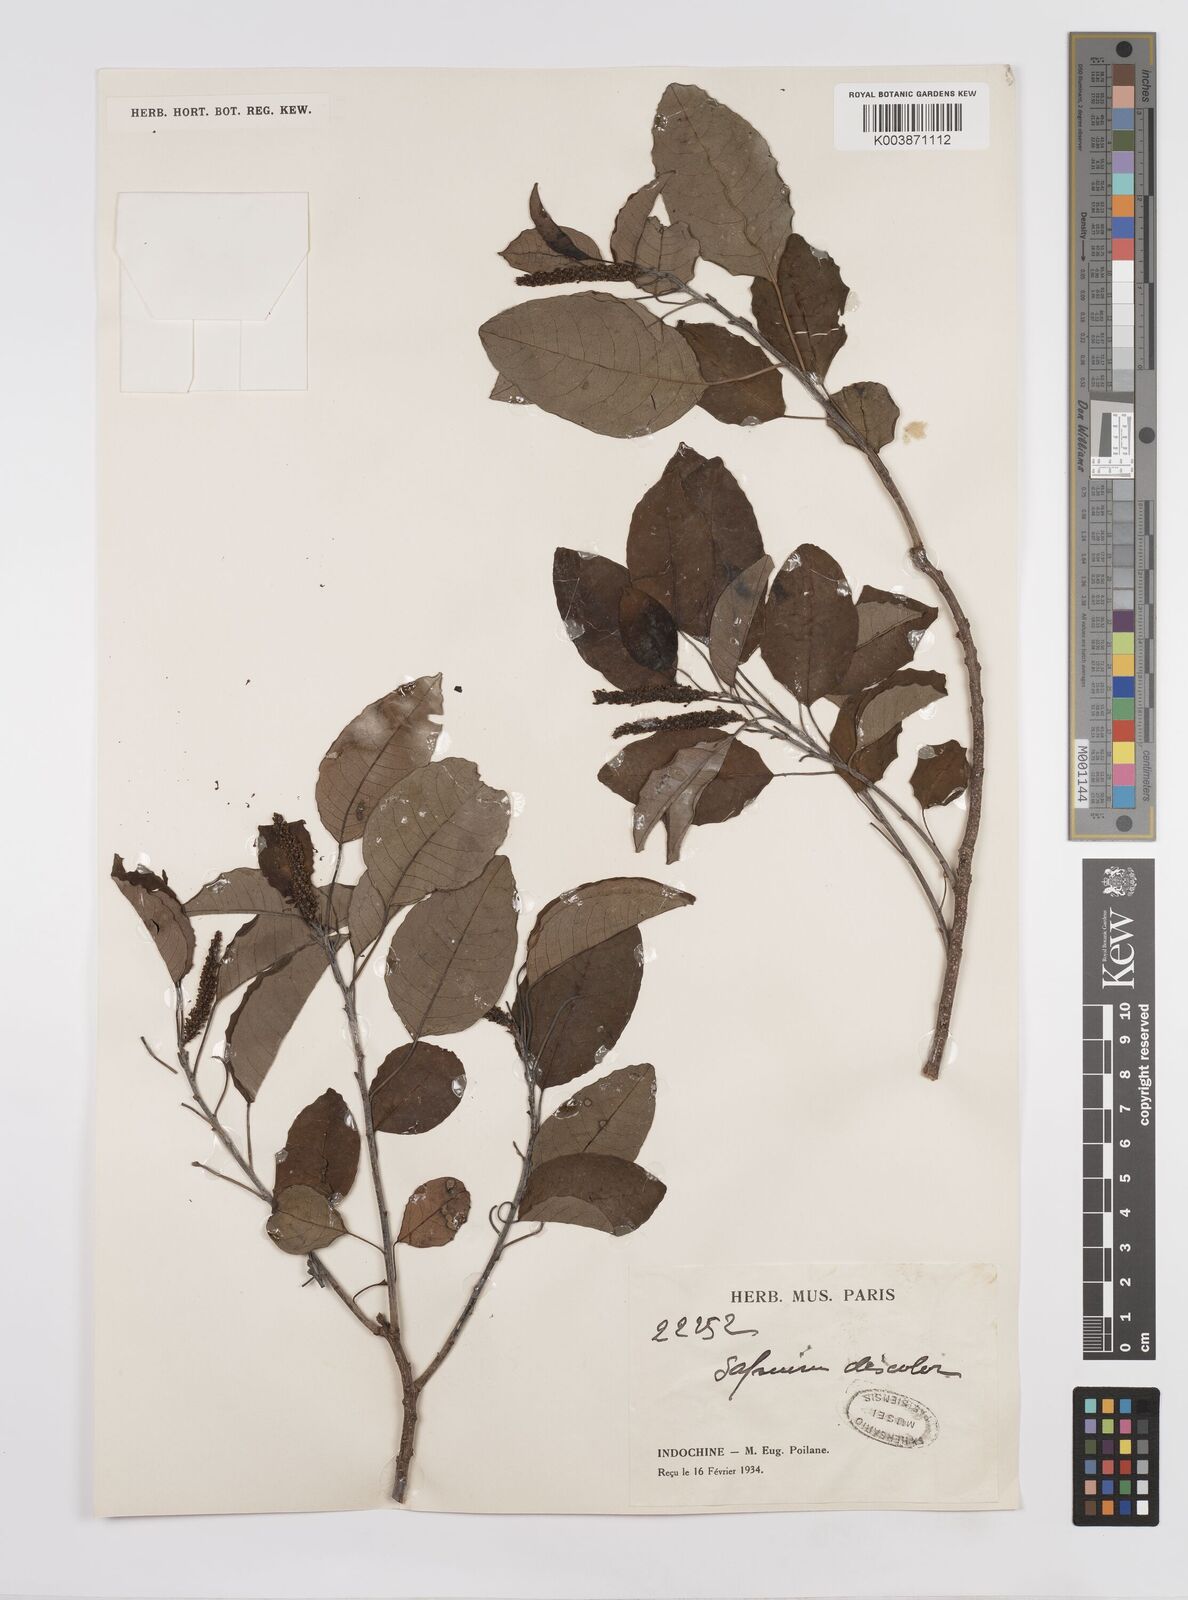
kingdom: Plantae
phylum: Tracheophyta
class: Magnoliopsida
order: Malpighiales
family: Euphorbiaceae
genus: Triadica
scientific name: Triadica cochinchinensis
